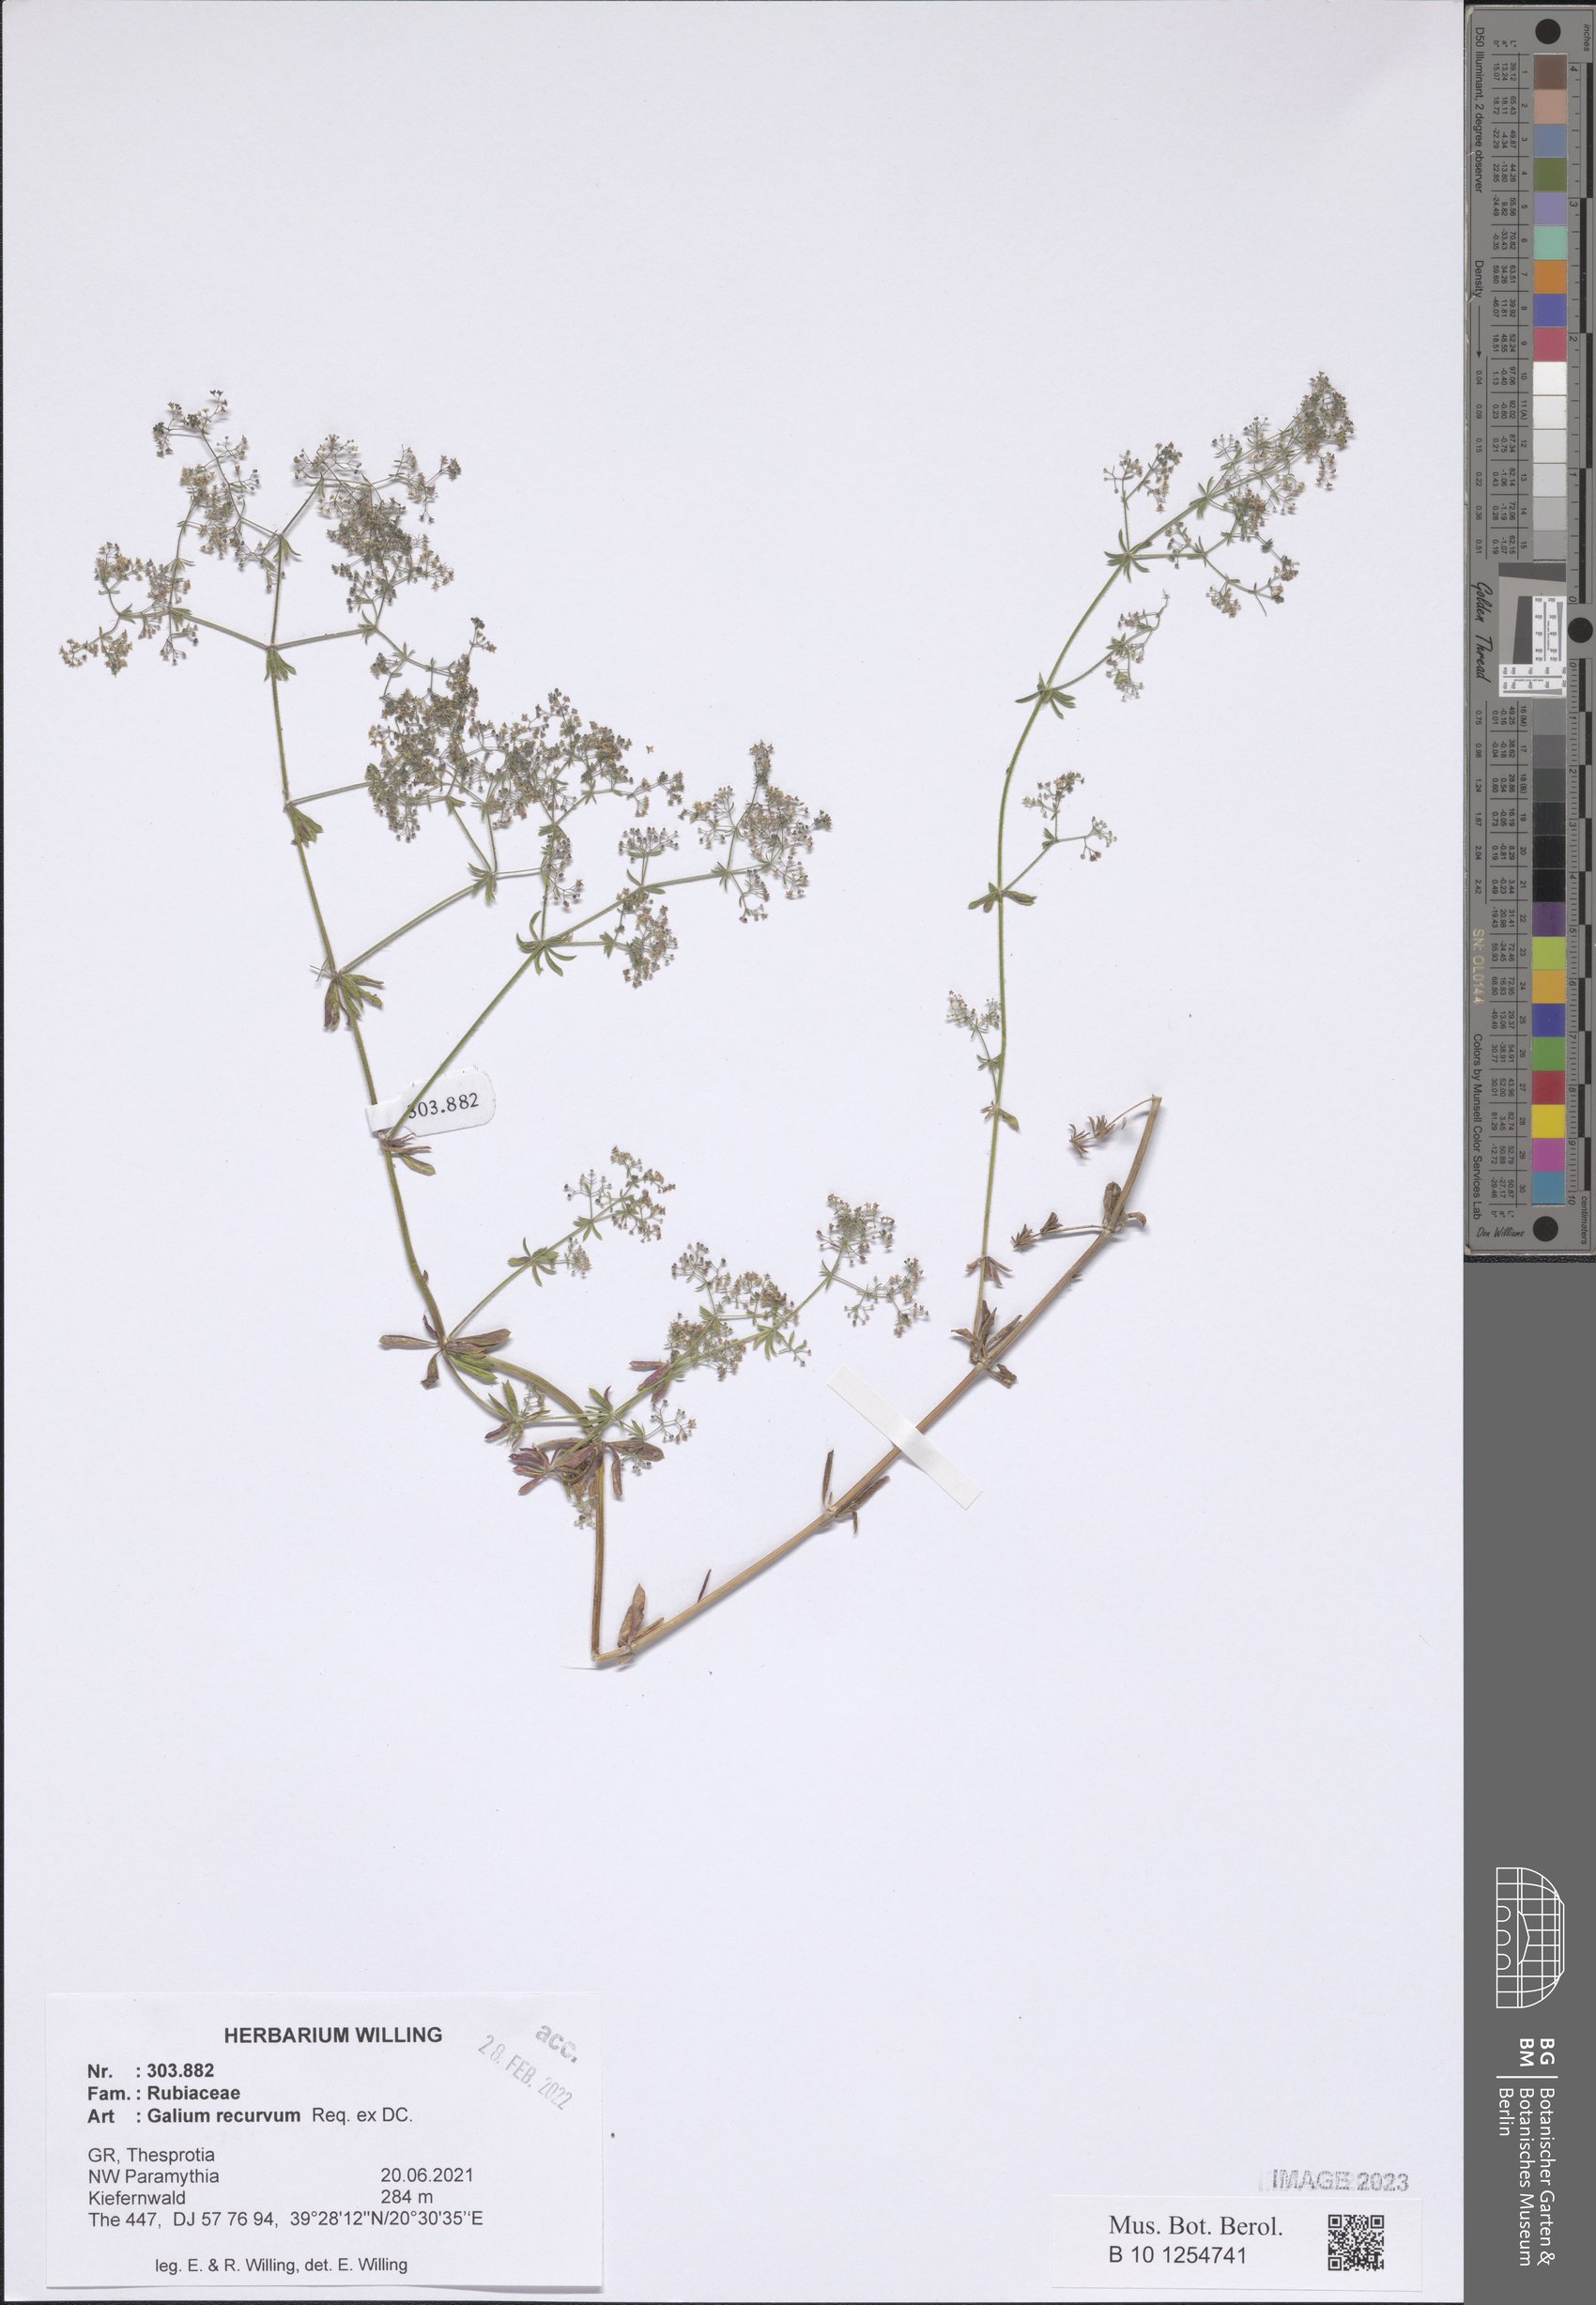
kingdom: Plantae
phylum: Tracheophyta
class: Magnoliopsida
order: Gentianales
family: Rubiaceae
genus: Galium
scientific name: Galium caminianum
